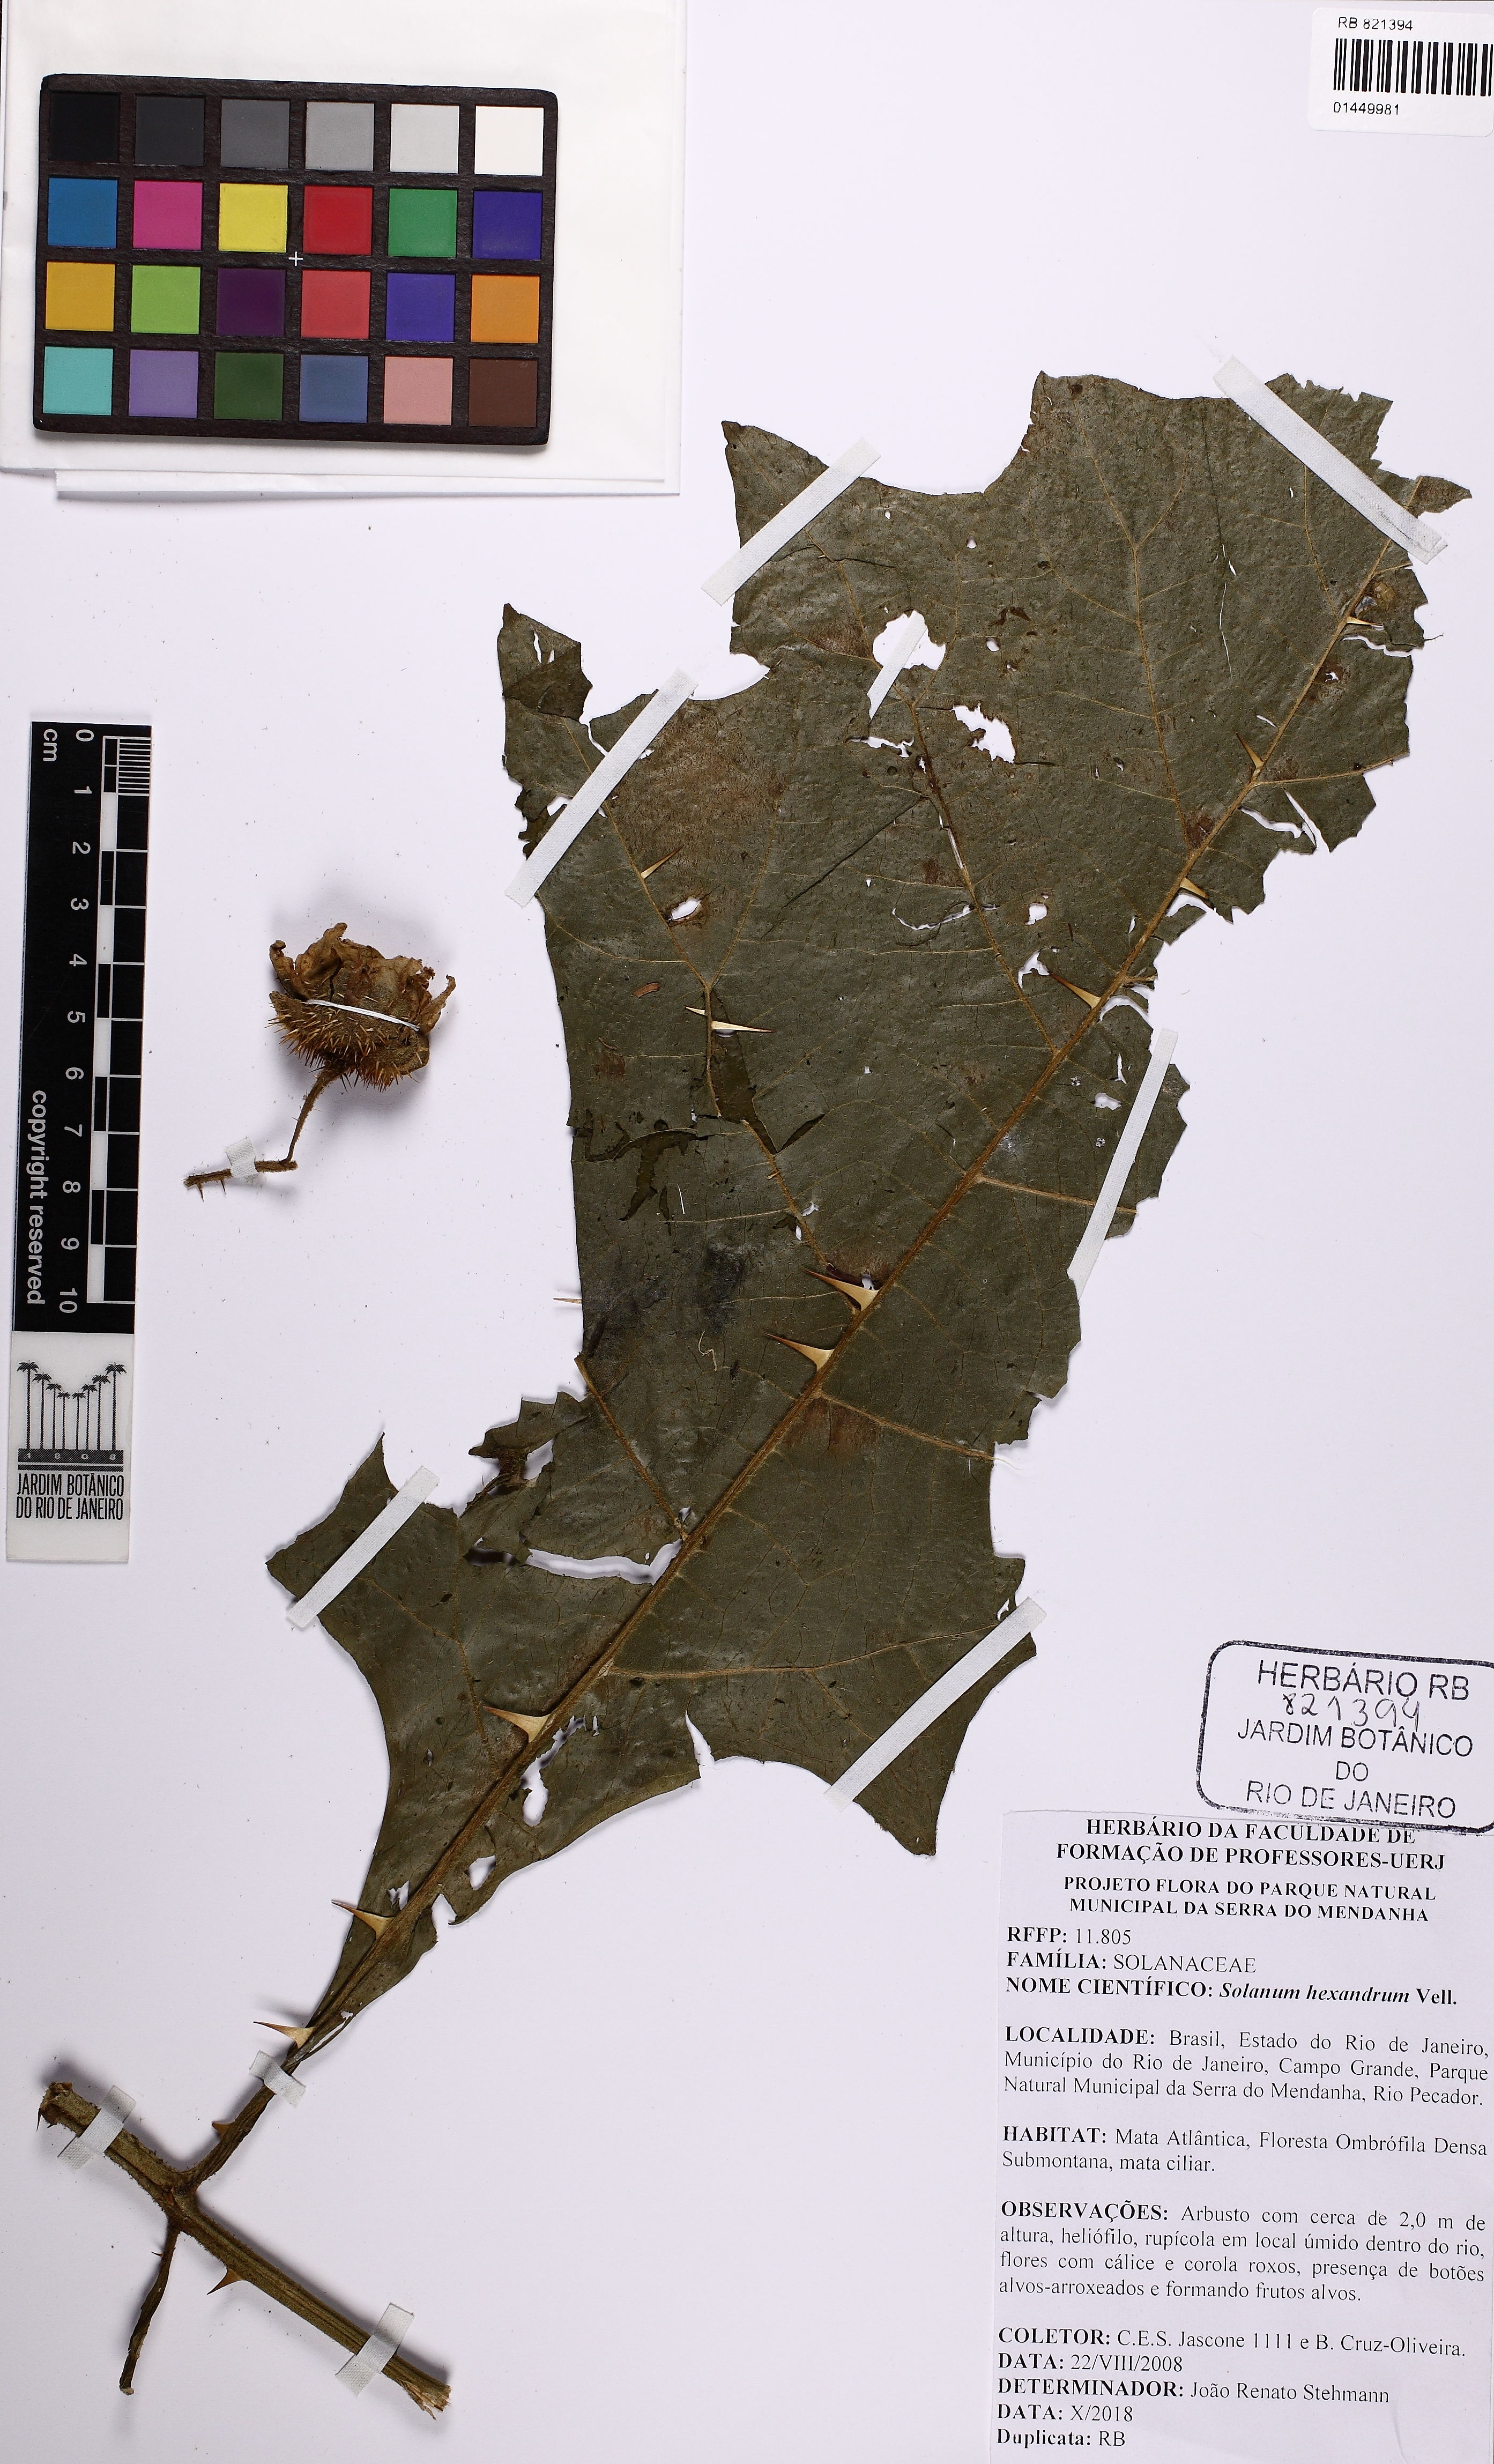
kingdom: Plantae
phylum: Tracheophyta
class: Magnoliopsida
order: Solanales
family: Solanaceae
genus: Solanum
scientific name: Solanum hexandrum
